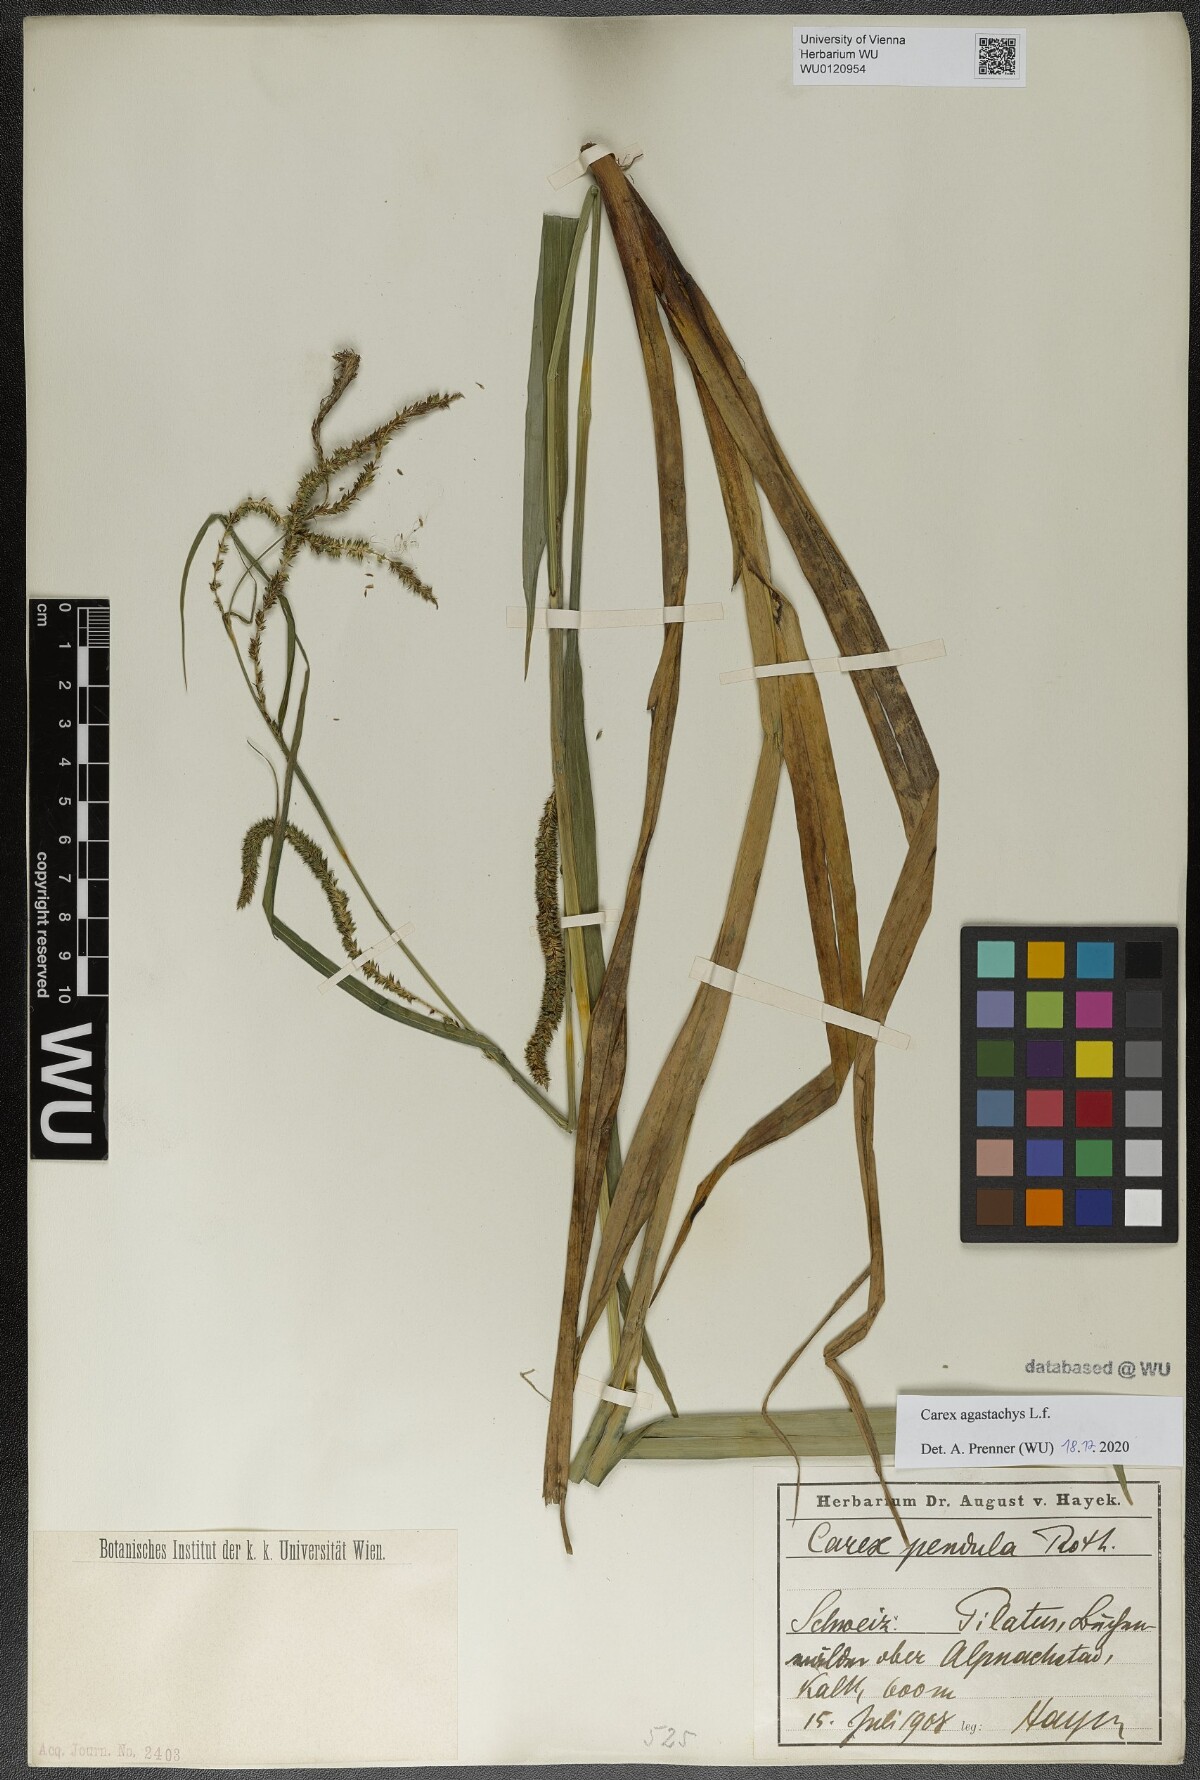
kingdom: Plantae
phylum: Tracheophyta
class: Liliopsida
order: Poales
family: Cyperaceae
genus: Carex
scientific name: Carex agastachys
